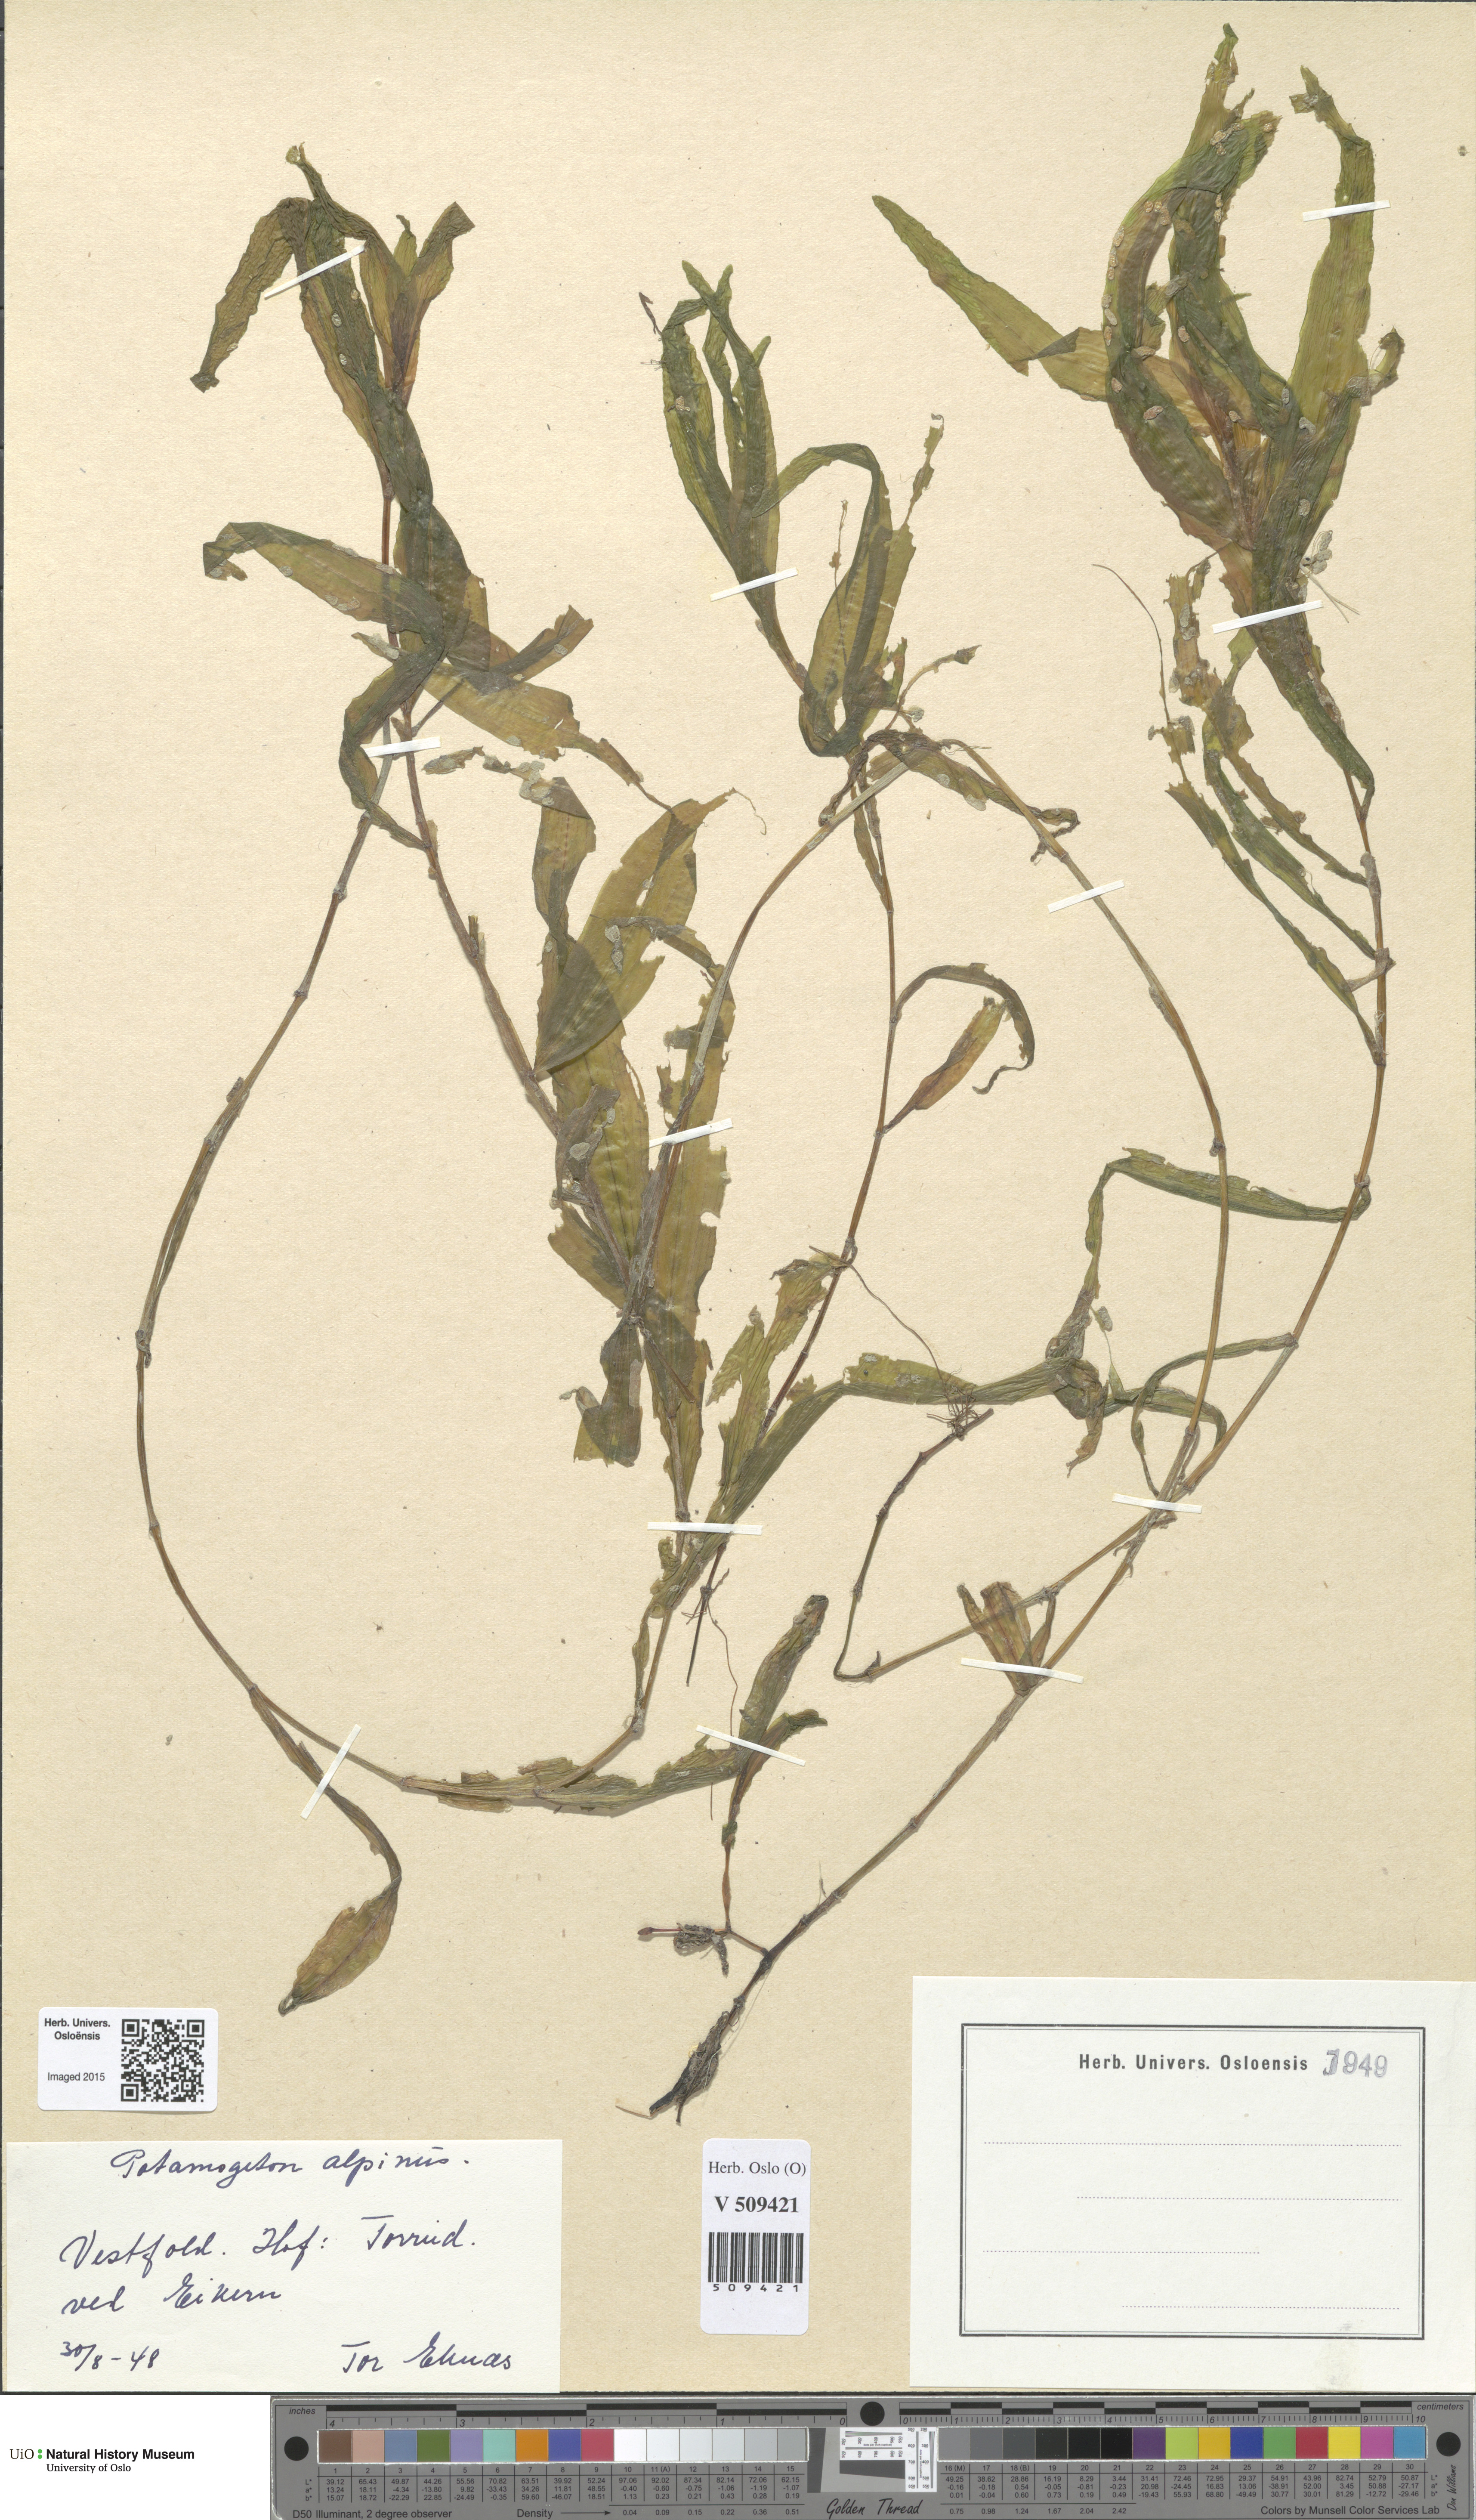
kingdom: Plantae
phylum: Tracheophyta
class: Liliopsida
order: Alismatales
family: Potamogetonaceae
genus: Potamogeton
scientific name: Potamogeton alpinus
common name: Red pondweed
